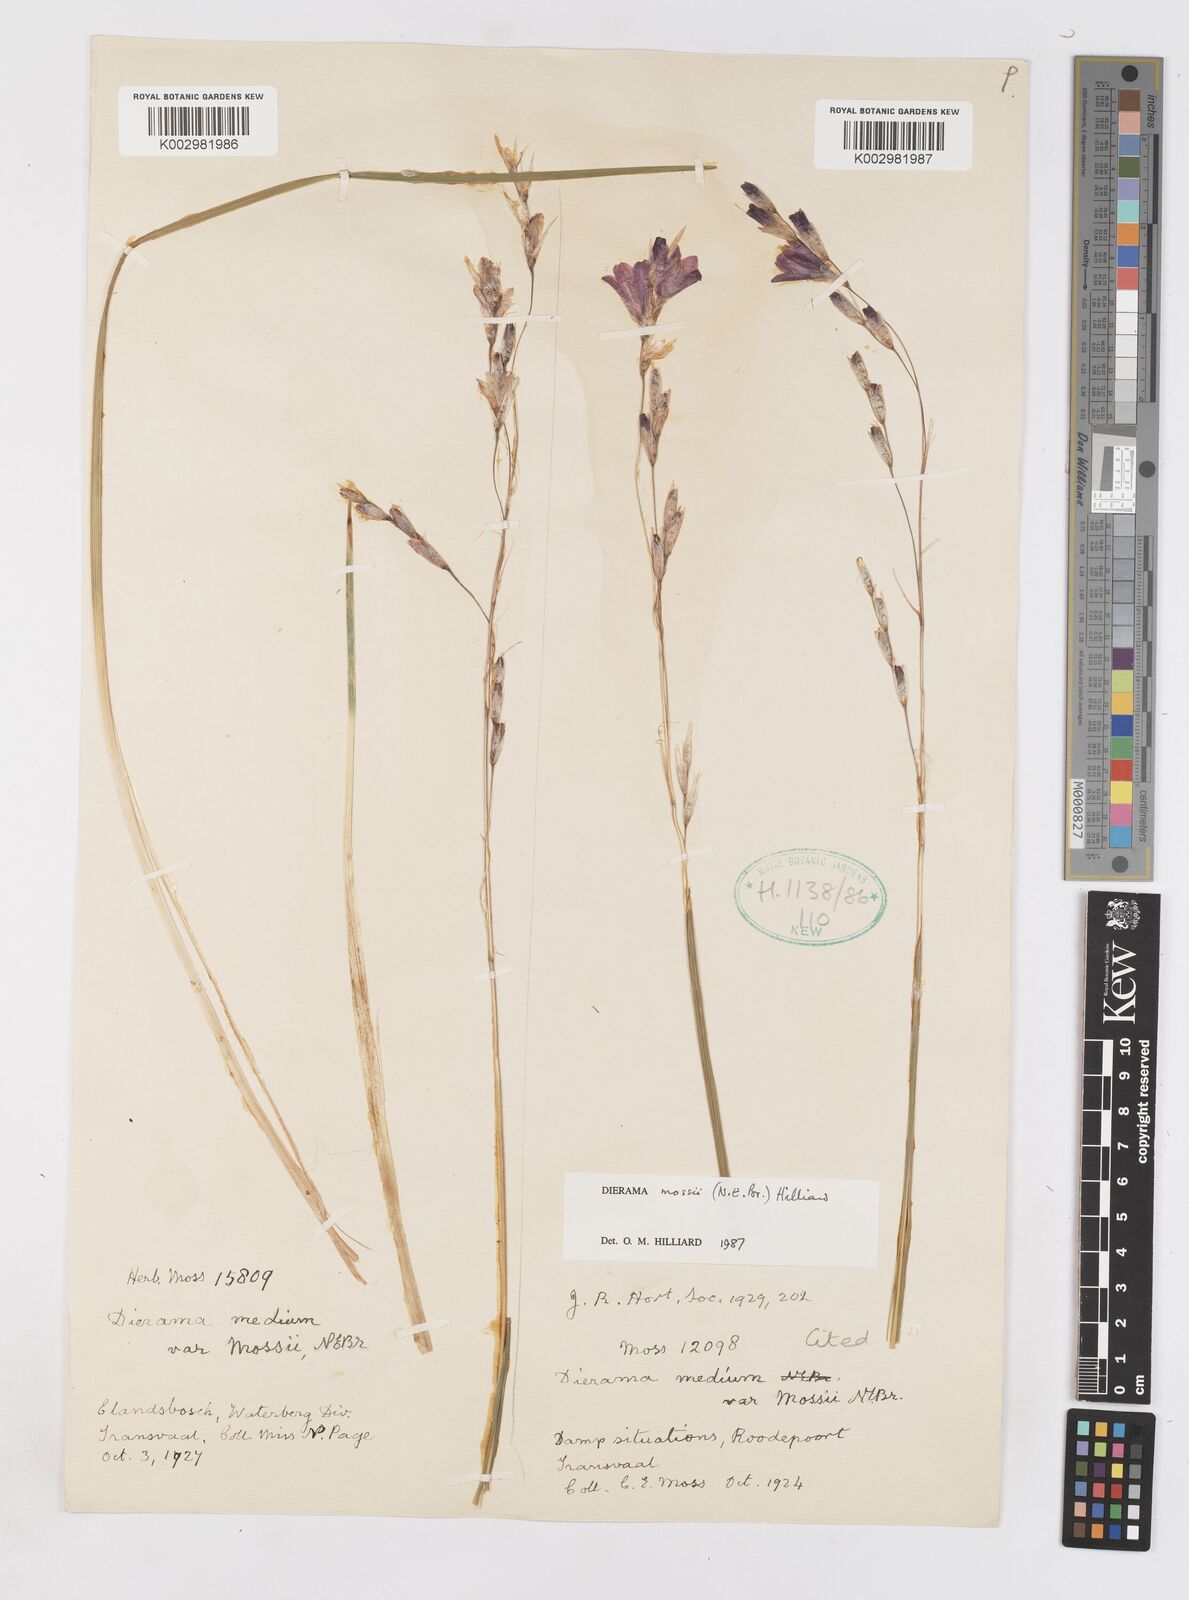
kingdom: Plantae
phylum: Tracheophyta
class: Liliopsida
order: Asparagales
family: Iridaceae
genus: Dierama
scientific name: Dierama mossii
